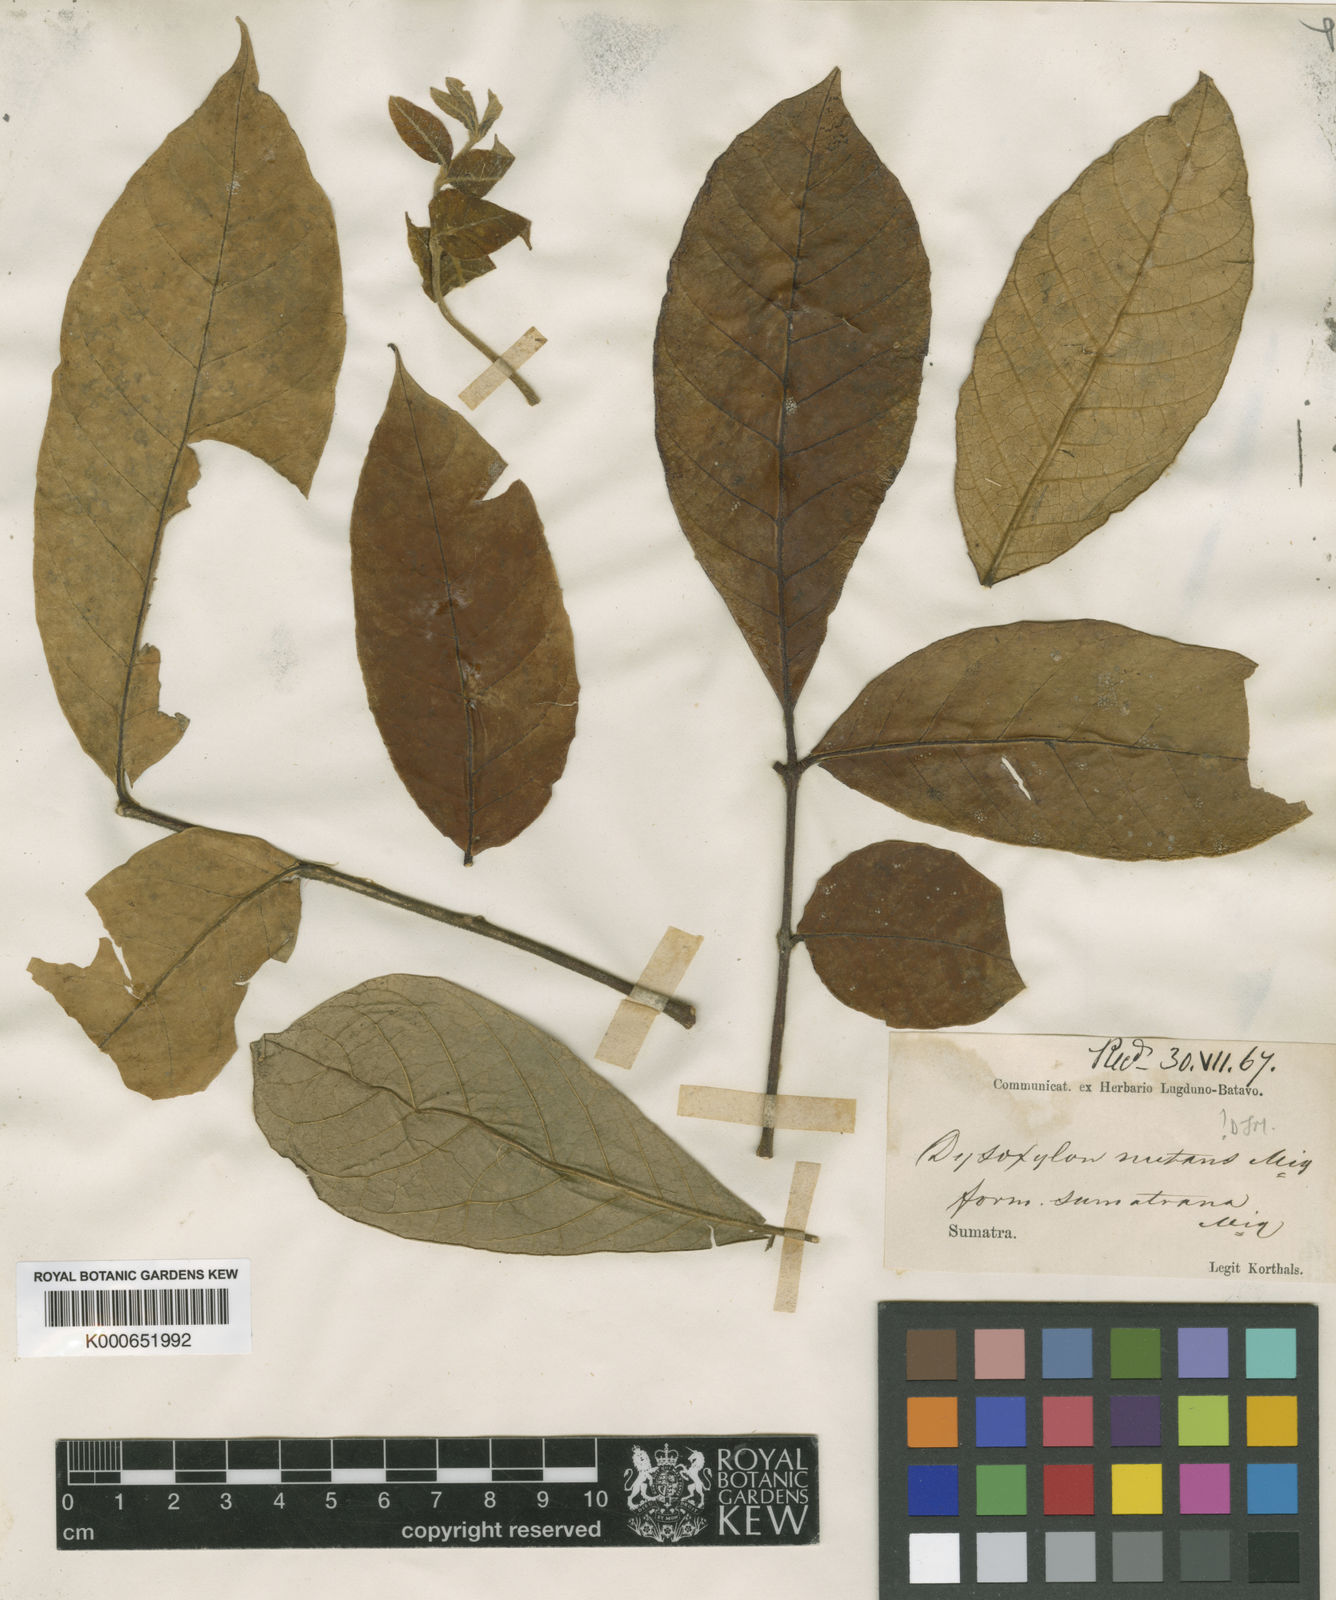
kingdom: Plantae
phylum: Tracheophyta
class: Magnoliopsida
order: Sapindales
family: Meliaceae
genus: Didymocheton
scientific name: Didymocheton nutans
